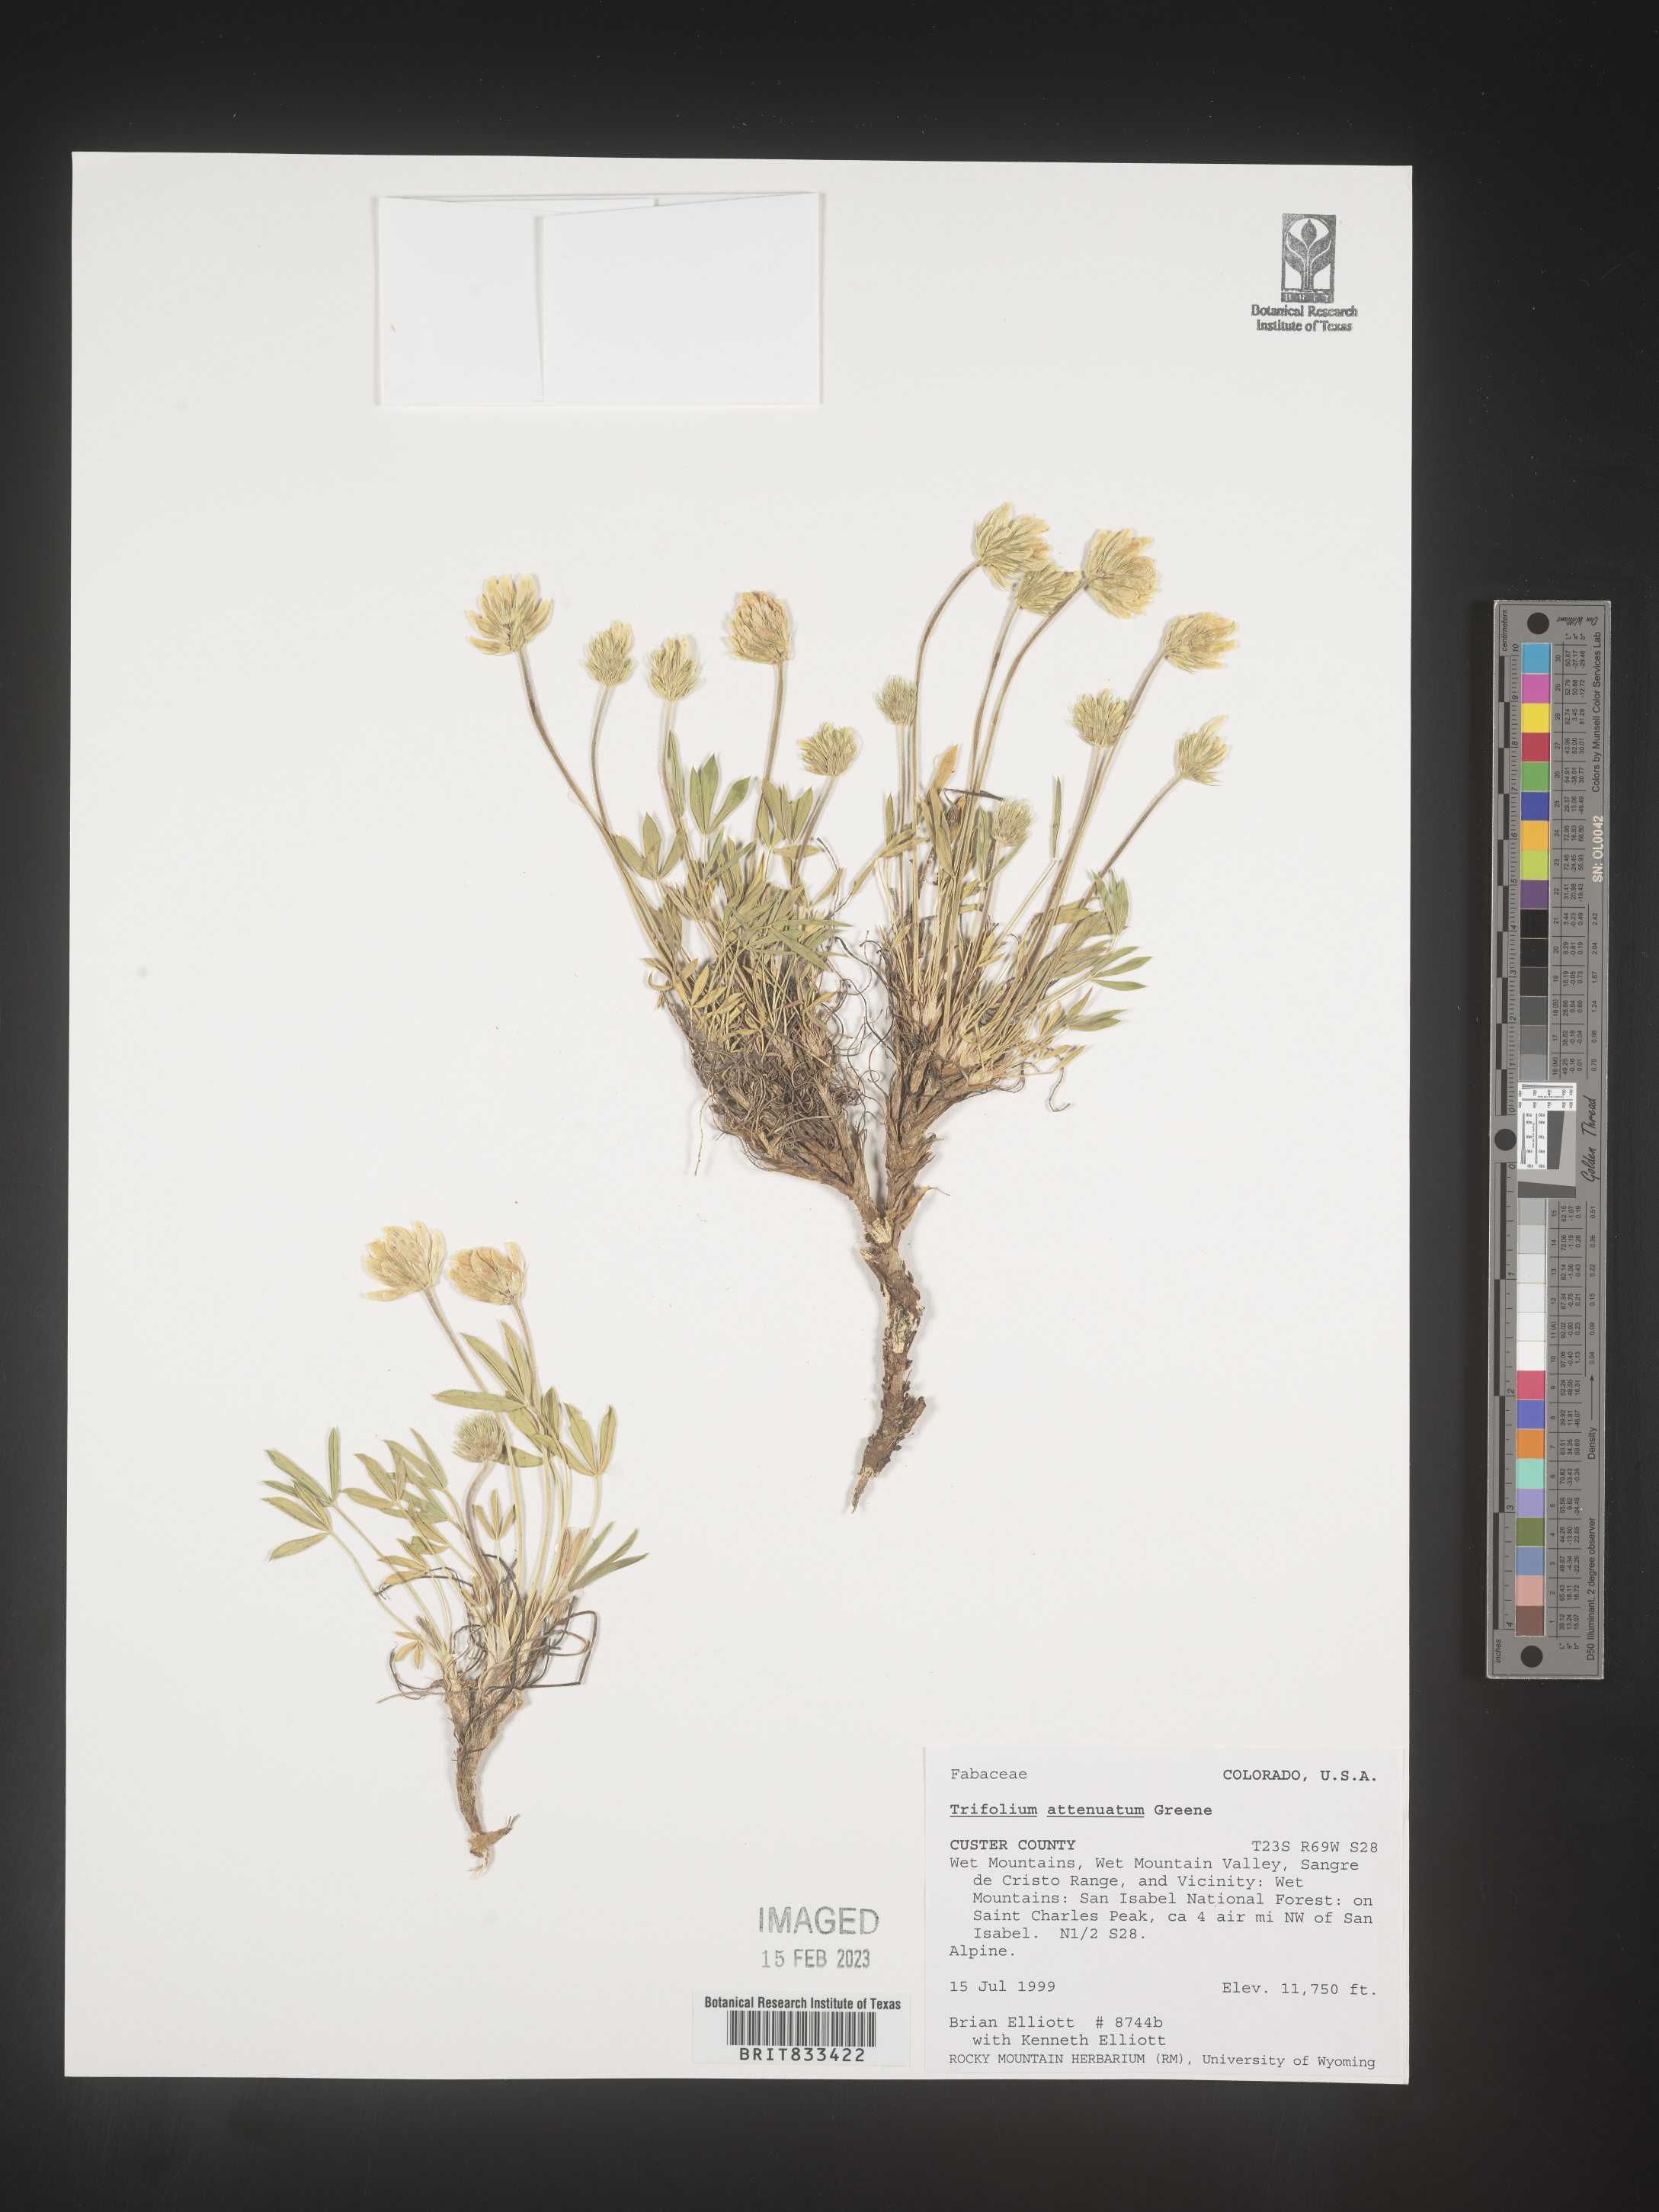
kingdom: Plantae
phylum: Tracheophyta
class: Magnoliopsida
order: Fabales
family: Fabaceae
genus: Trifolium
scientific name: Trifolium attenuatum
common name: Rocky mountain clover
